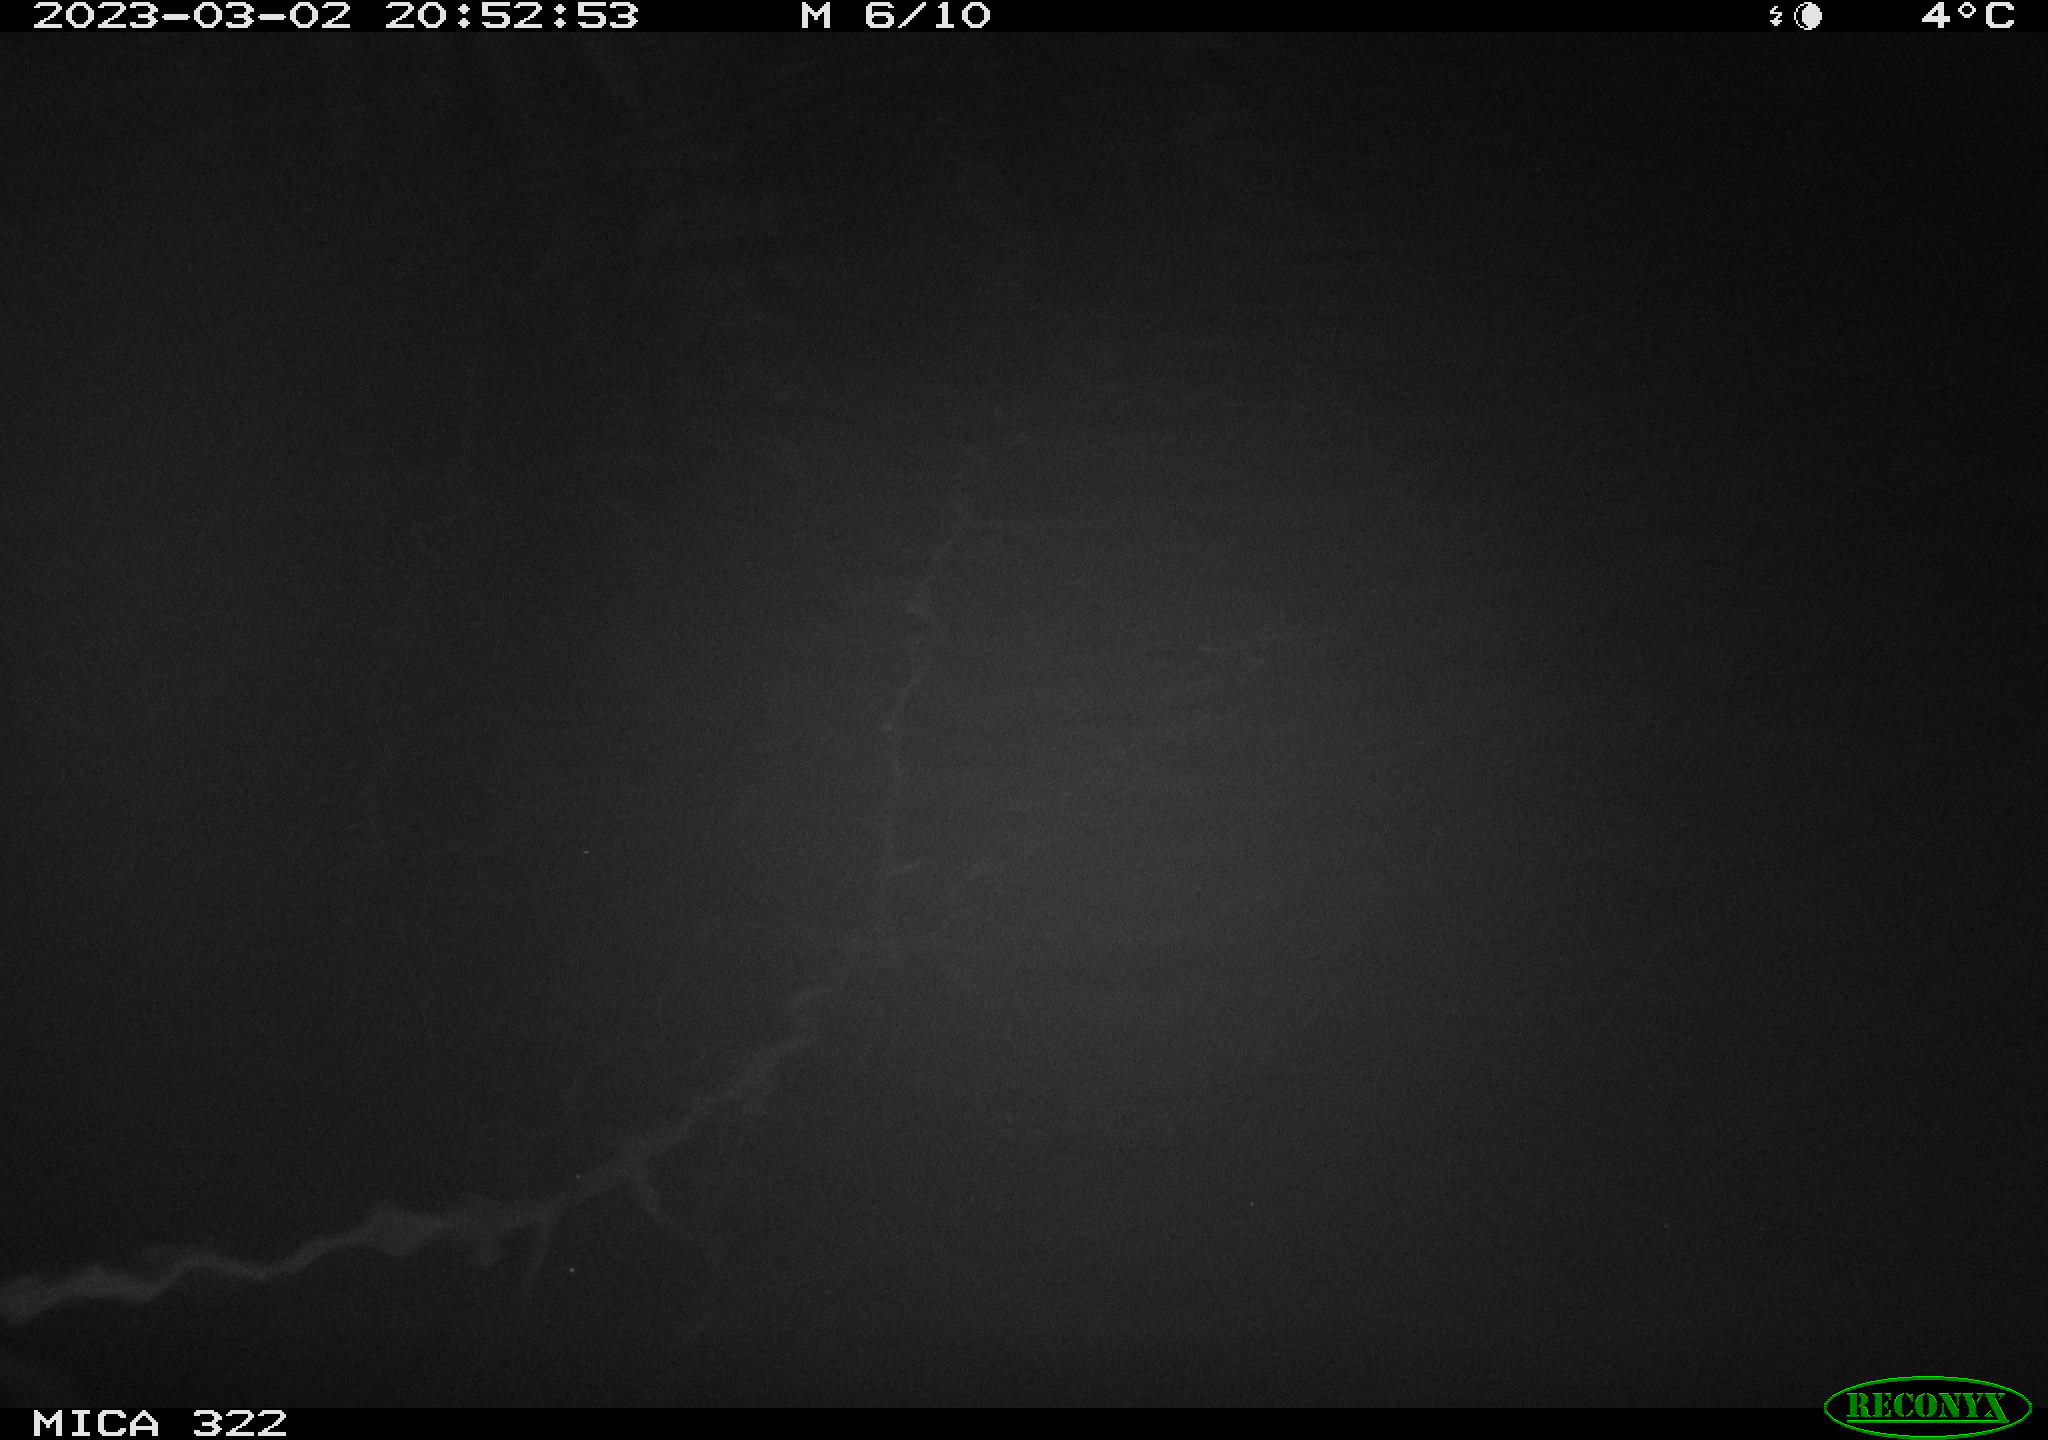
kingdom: Animalia
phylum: Chordata
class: Mammalia
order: Rodentia
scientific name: Rodentia
